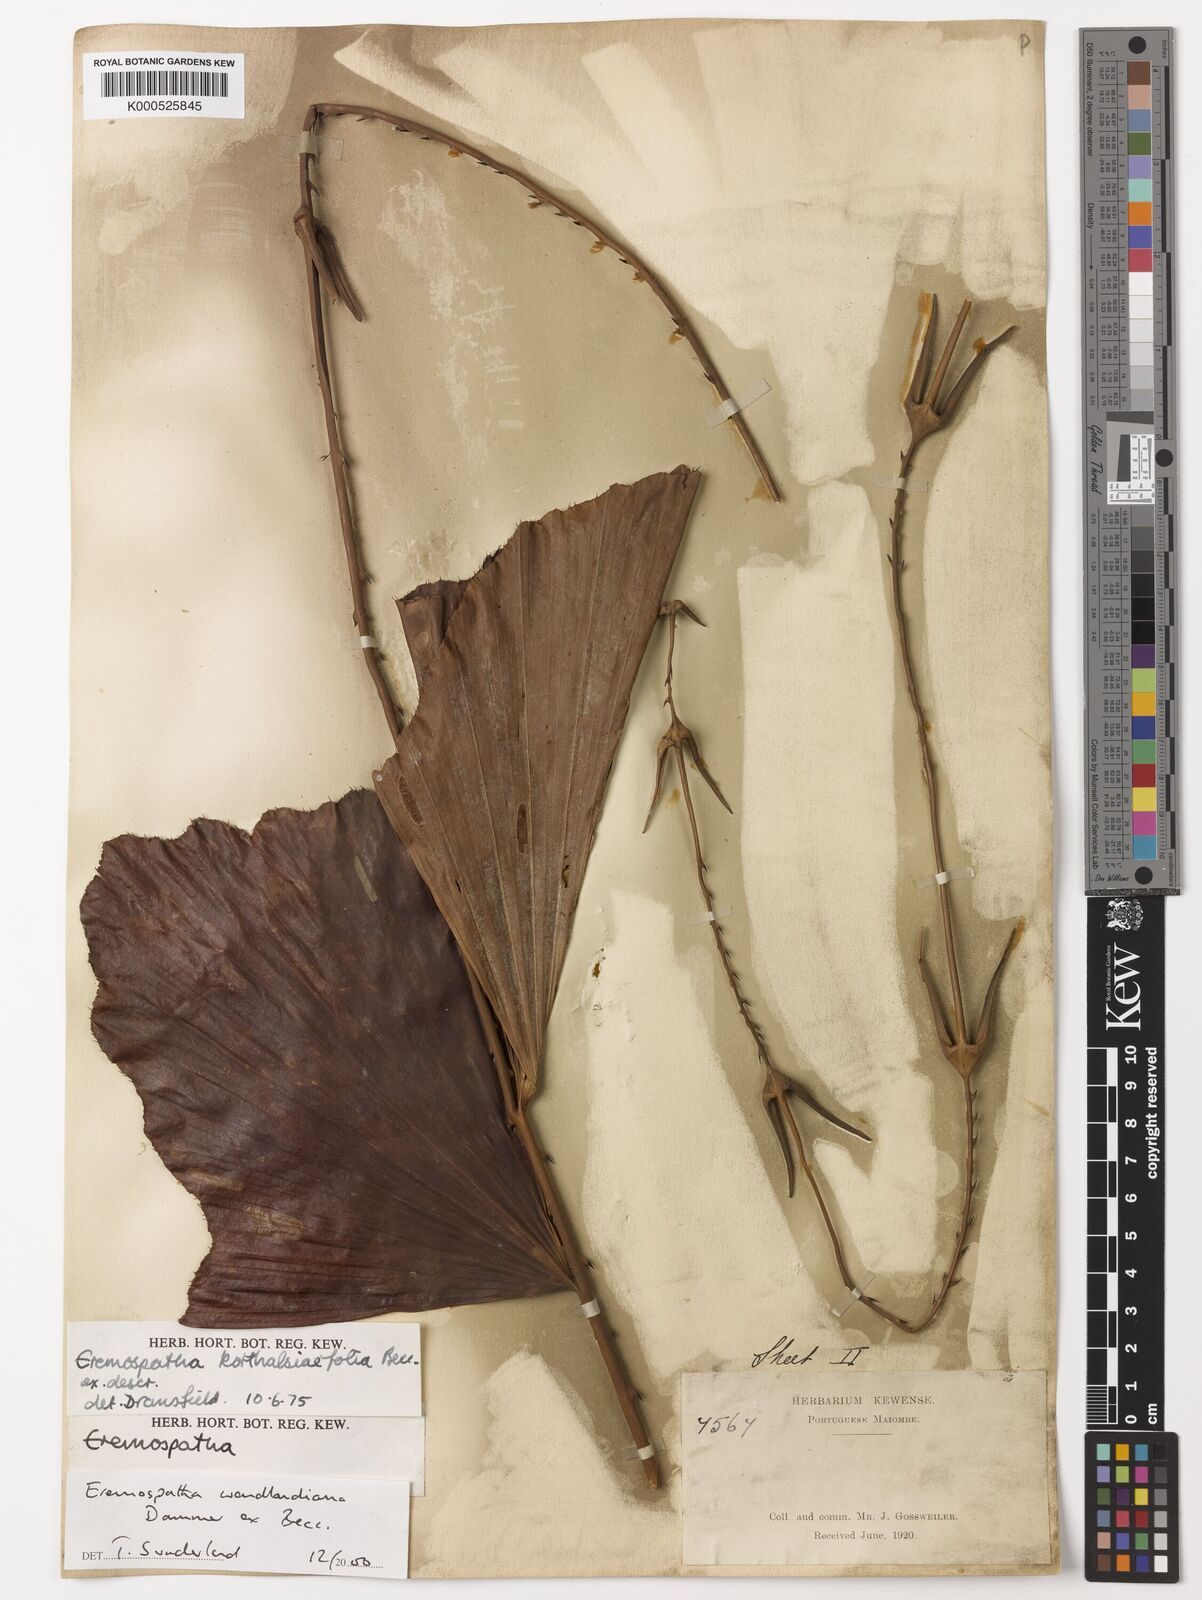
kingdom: Plantae
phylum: Tracheophyta
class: Liliopsida
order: Arecales
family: Arecaceae
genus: Eremospatha
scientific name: Eremospatha
